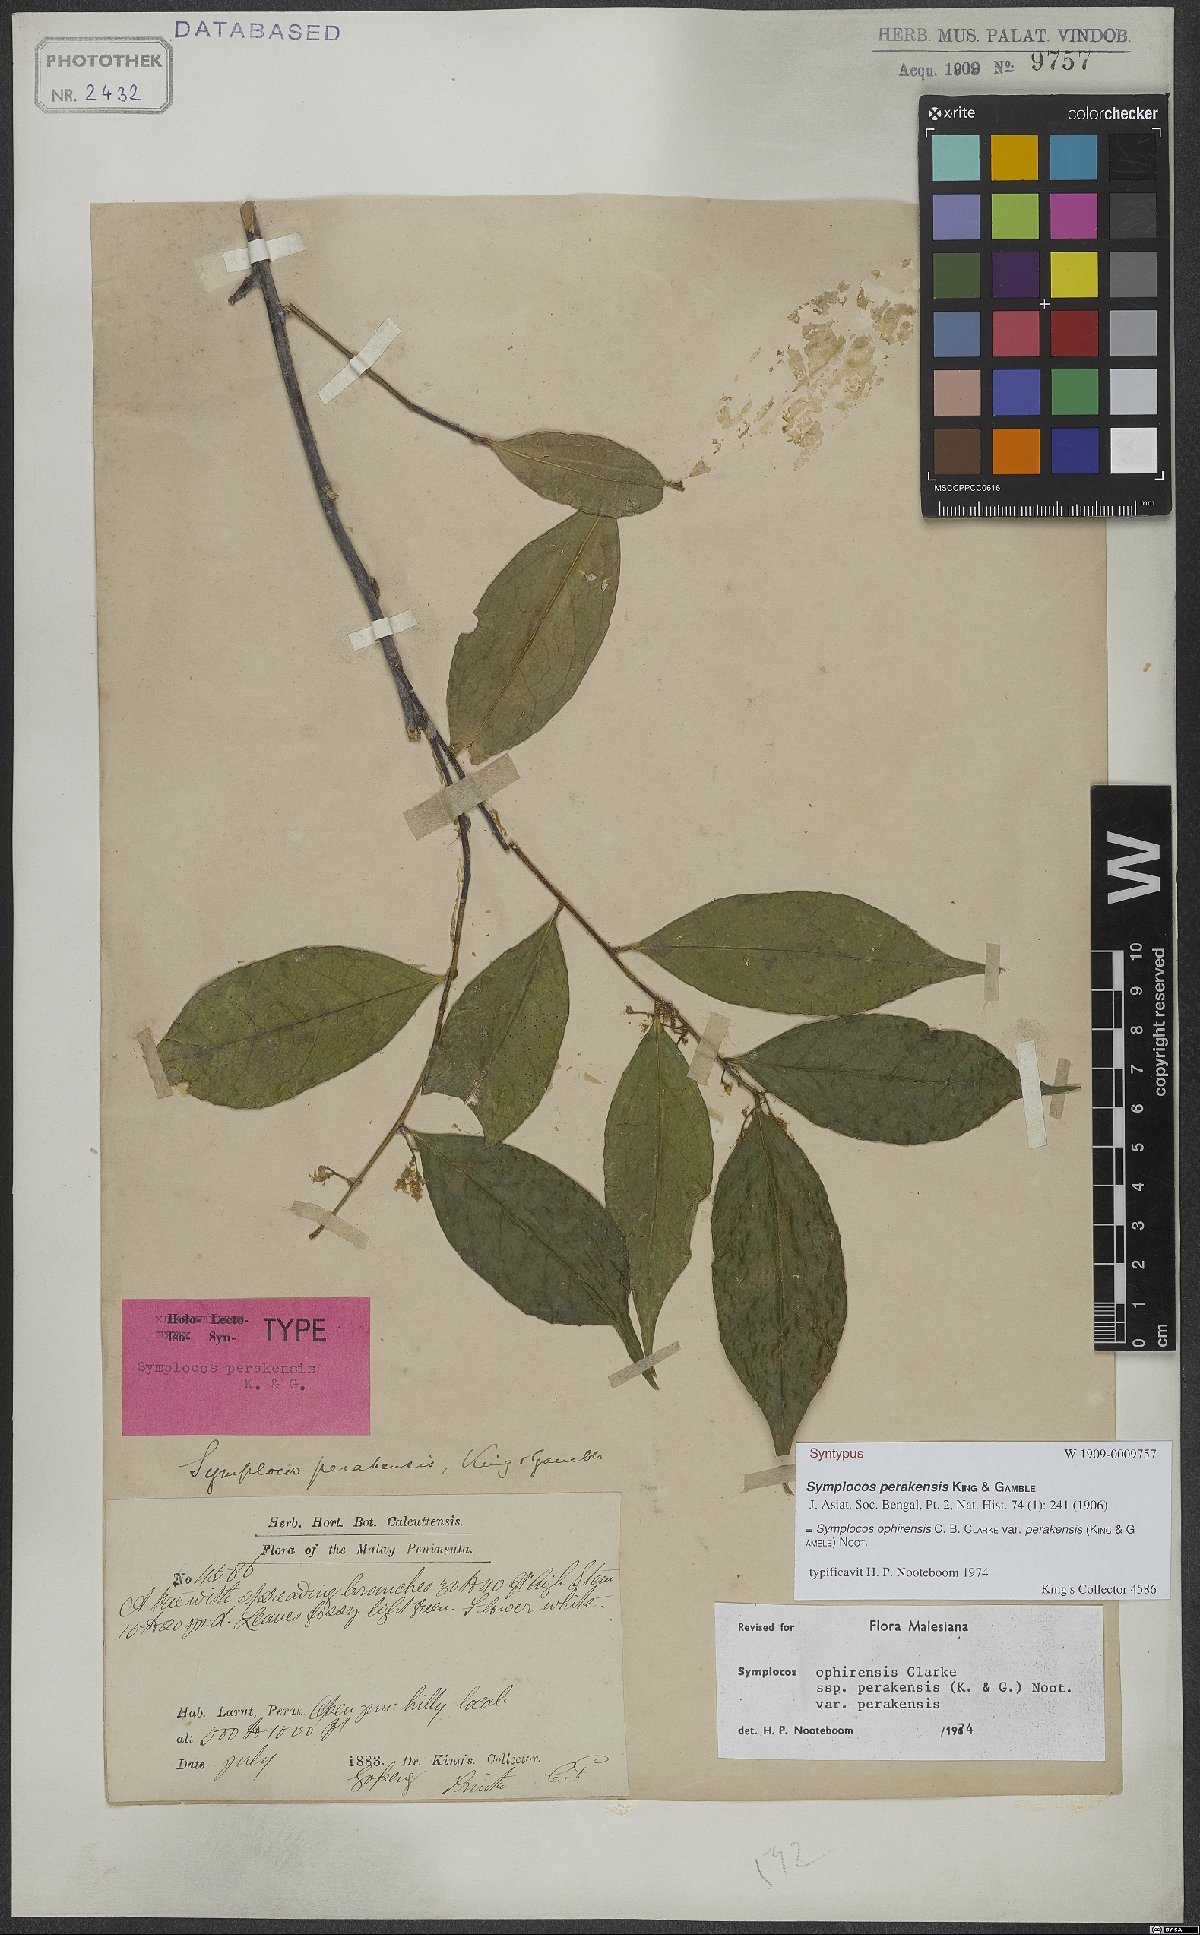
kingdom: Plantae
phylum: Tracheophyta
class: Magnoliopsida
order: Ericales
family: Symplocaceae
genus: Symplocos
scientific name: Symplocos ophirensis
